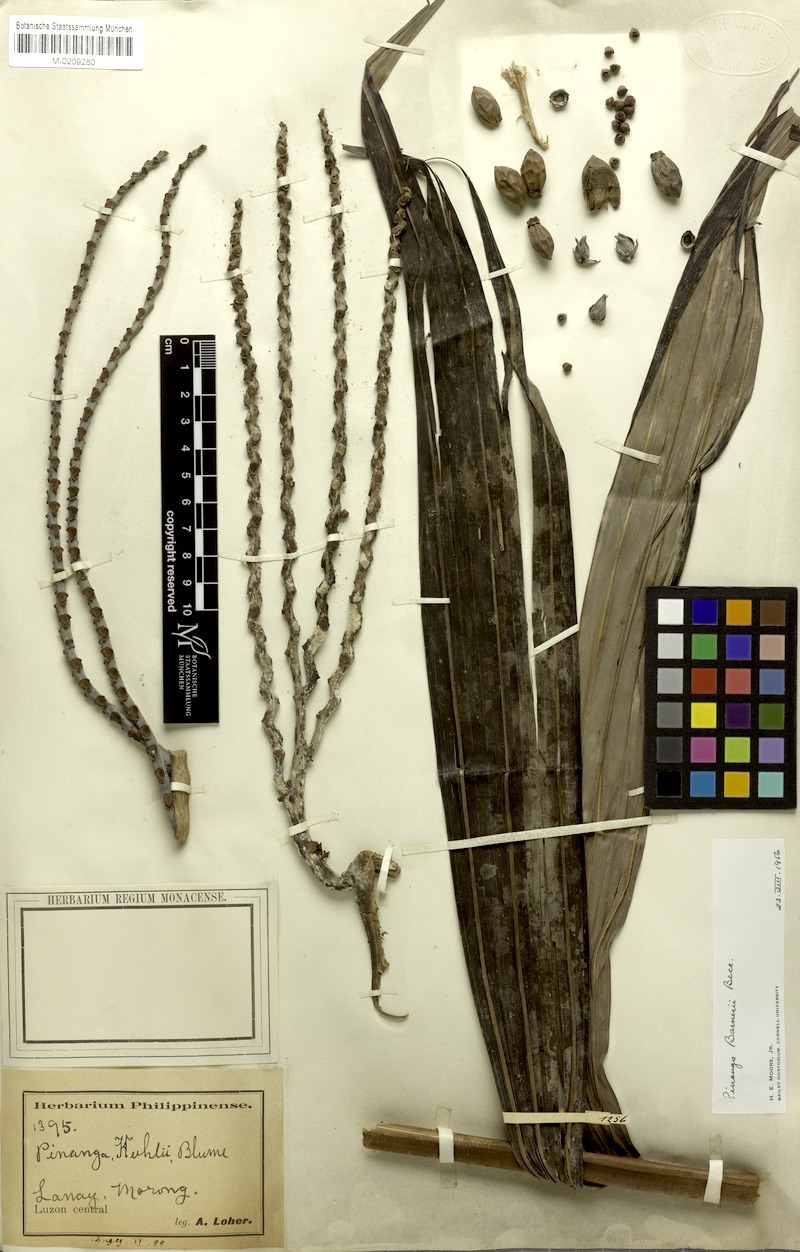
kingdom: Plantae
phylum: Tracheophyta
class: Liliopsida
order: Arecales
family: Arecaceae
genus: Pinanga
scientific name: Pinanga maculata
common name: Tiger palm
